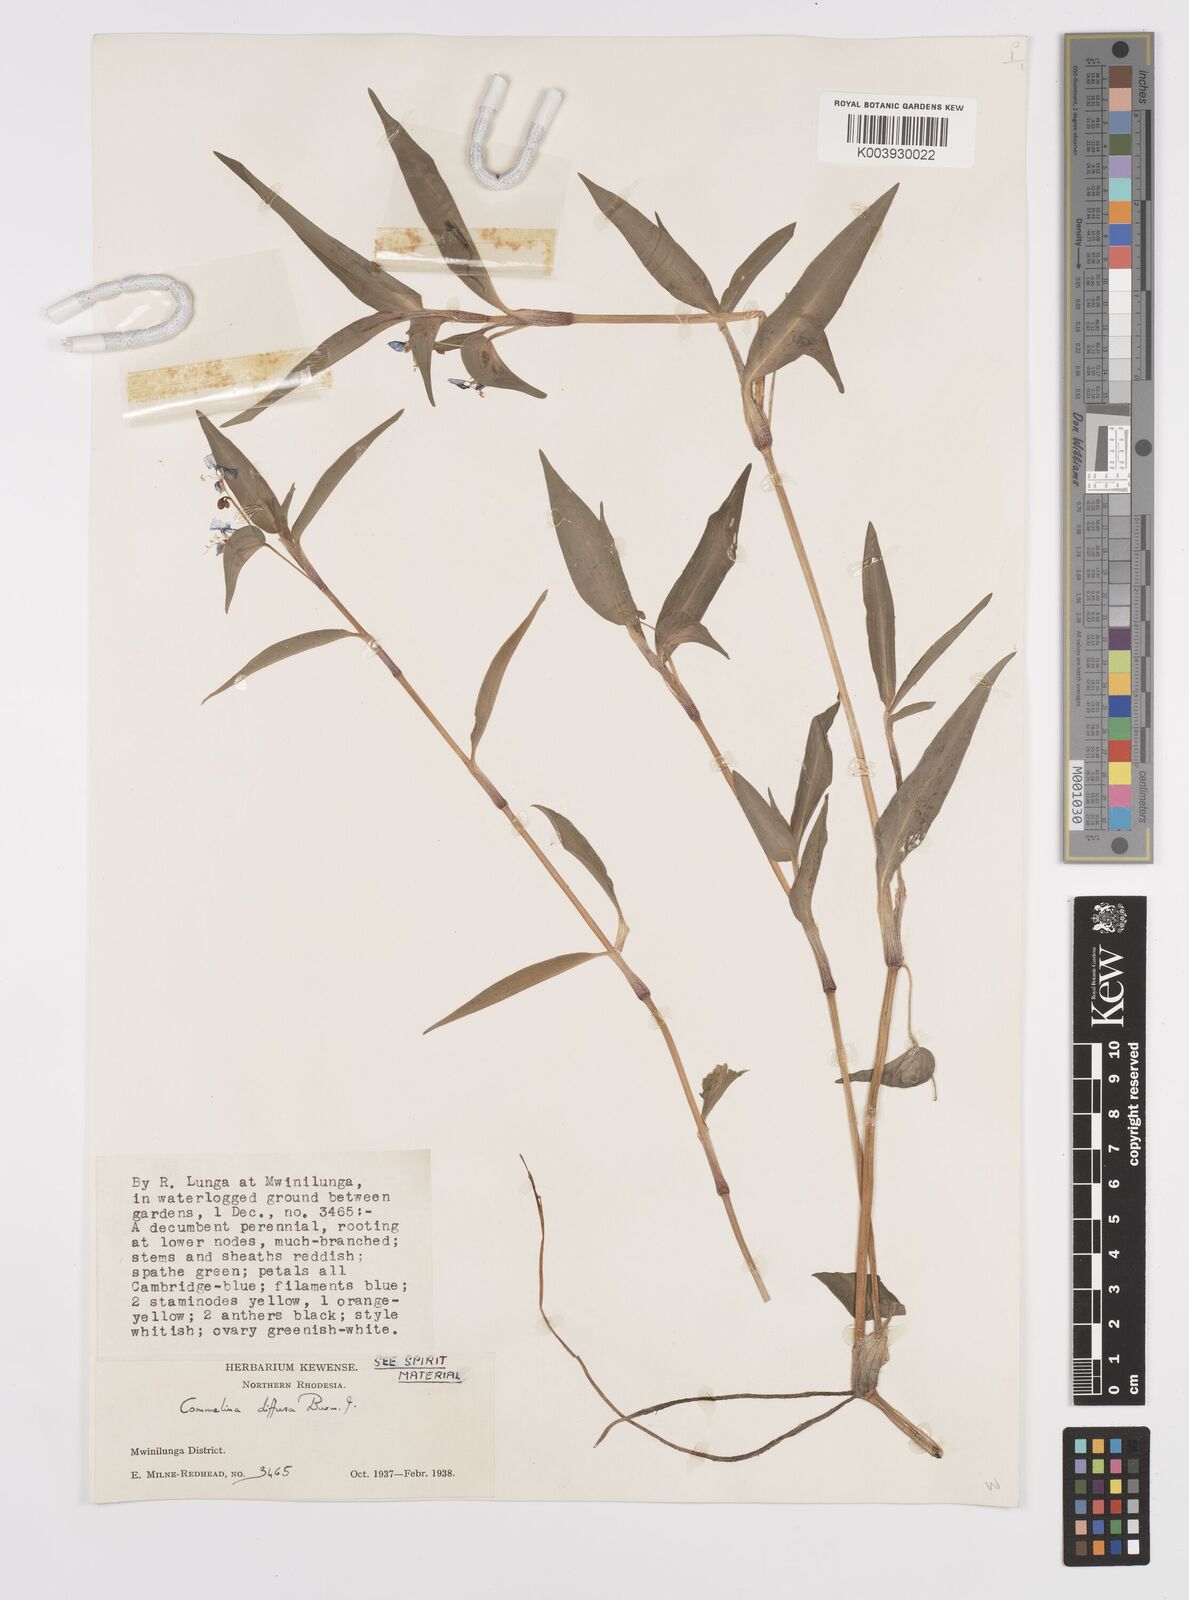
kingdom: Plantae
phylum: Tracheophyta
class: Liliopsida
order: Commelinales
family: Commelinaceae
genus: Commelina
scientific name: Commelina diffusa
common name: Climbing dayflower
